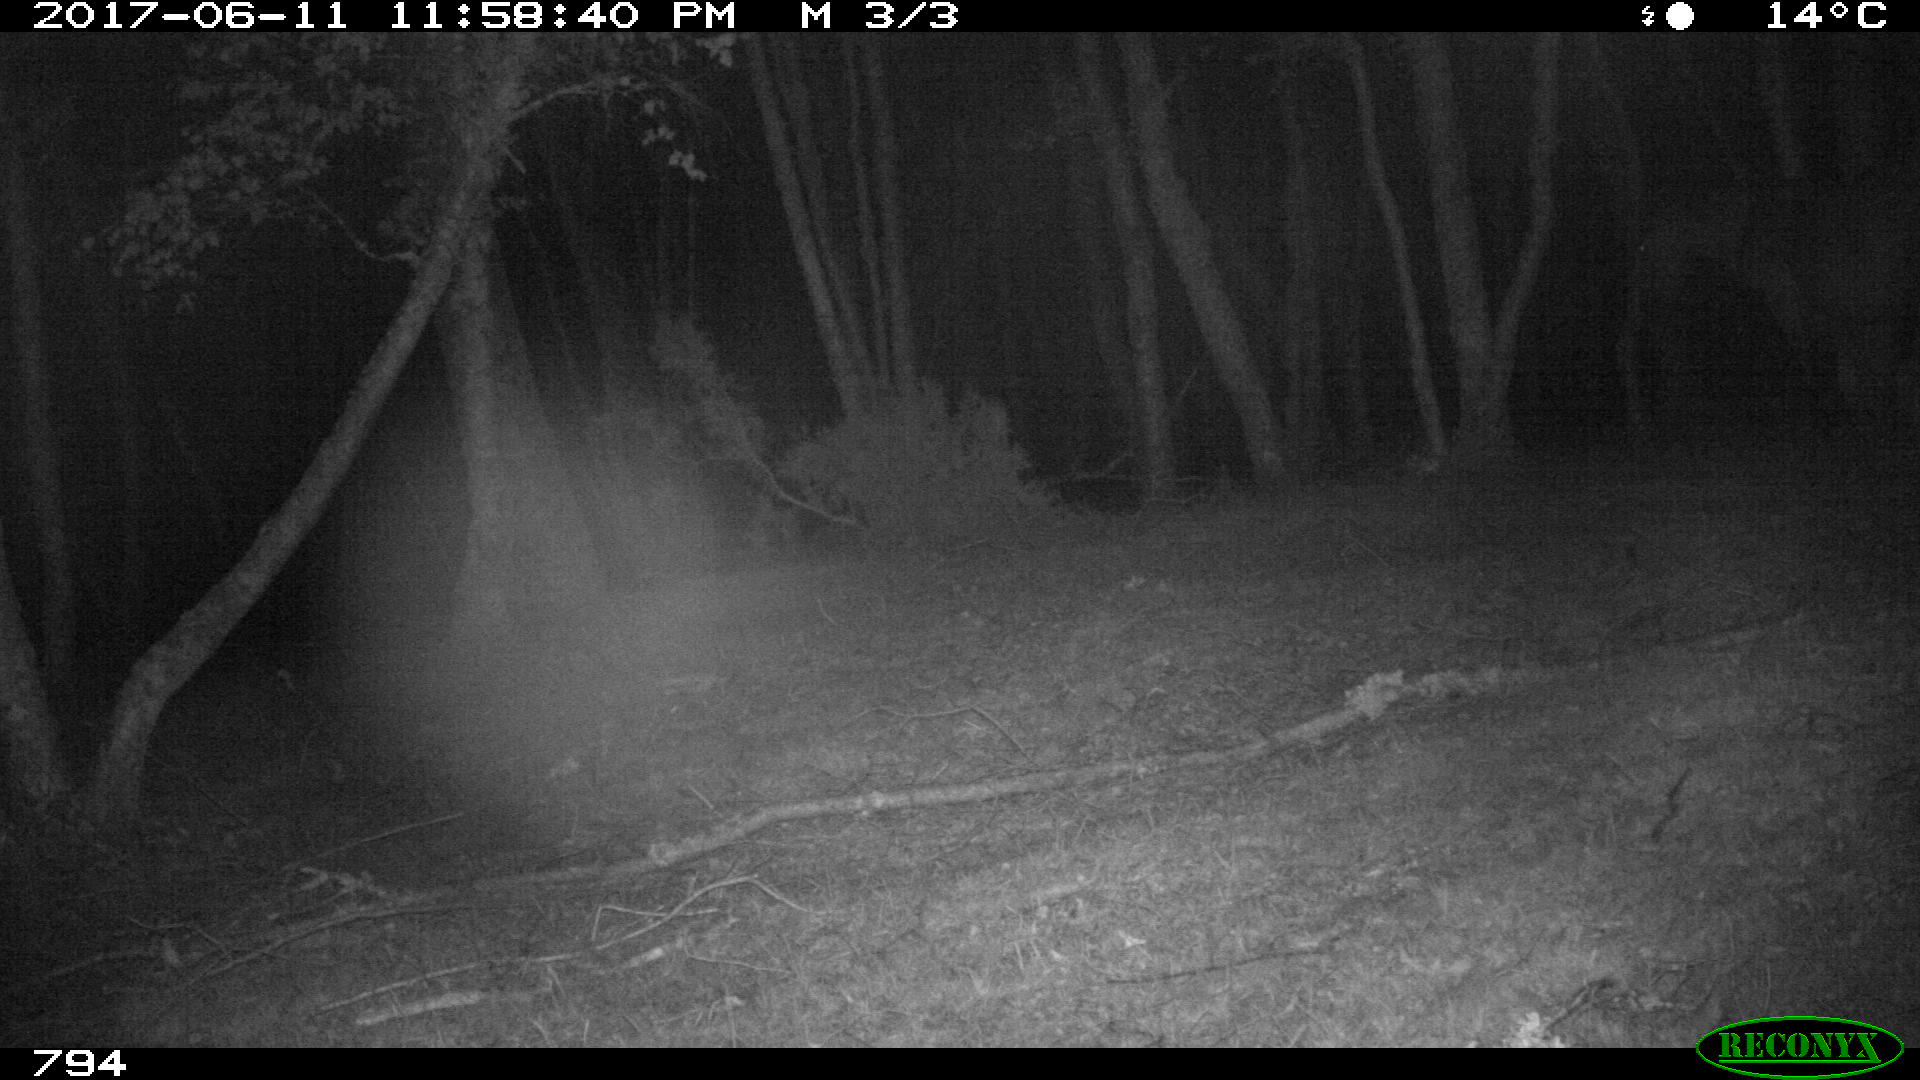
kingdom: Animalia
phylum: Chordata
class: Mammalia
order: Perissodactyla
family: Equidae
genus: Equus
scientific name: Equus caballus
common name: Horse
